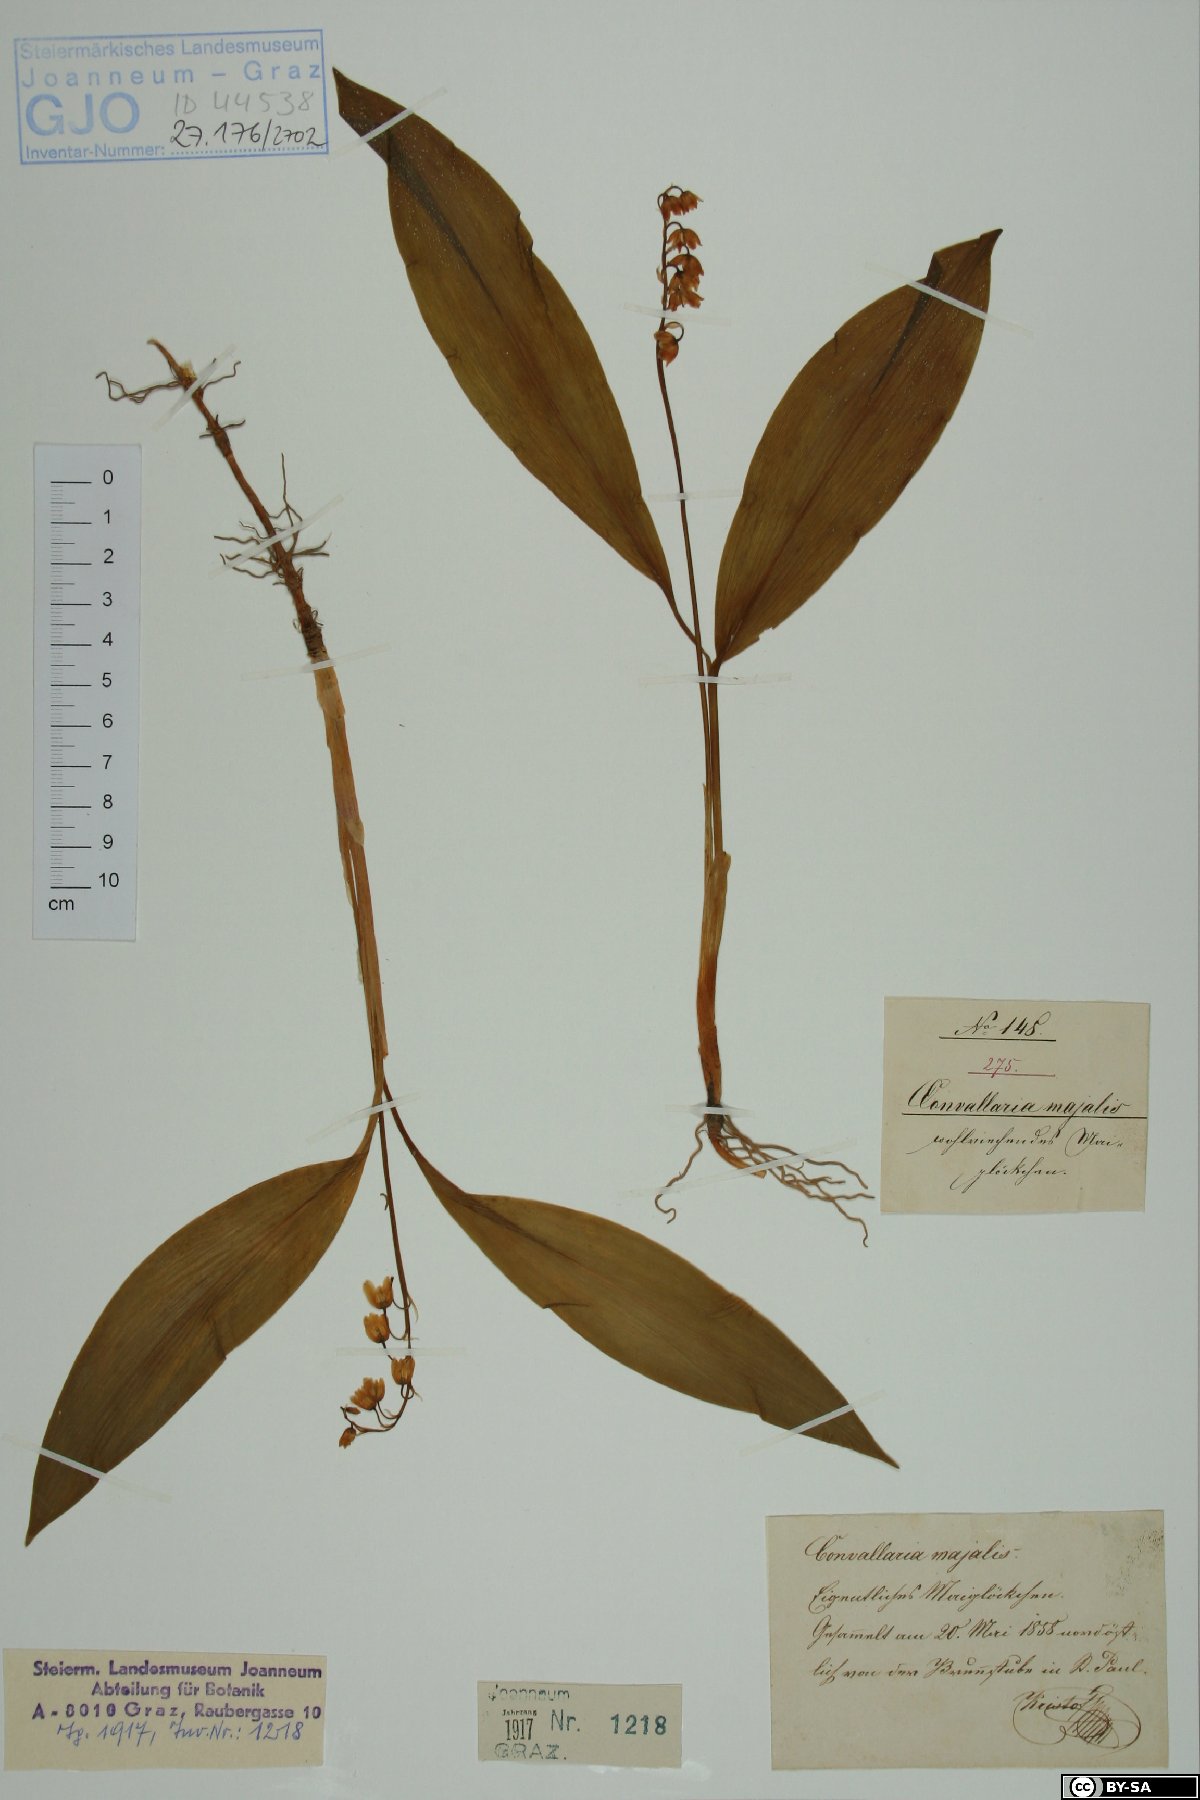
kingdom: Plantae
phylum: Tracheophyta
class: Liliopsida
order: Asparagales
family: Asparagaceae
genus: Convallaria
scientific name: Convallaria majalis
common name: Lily-of-the-valley
